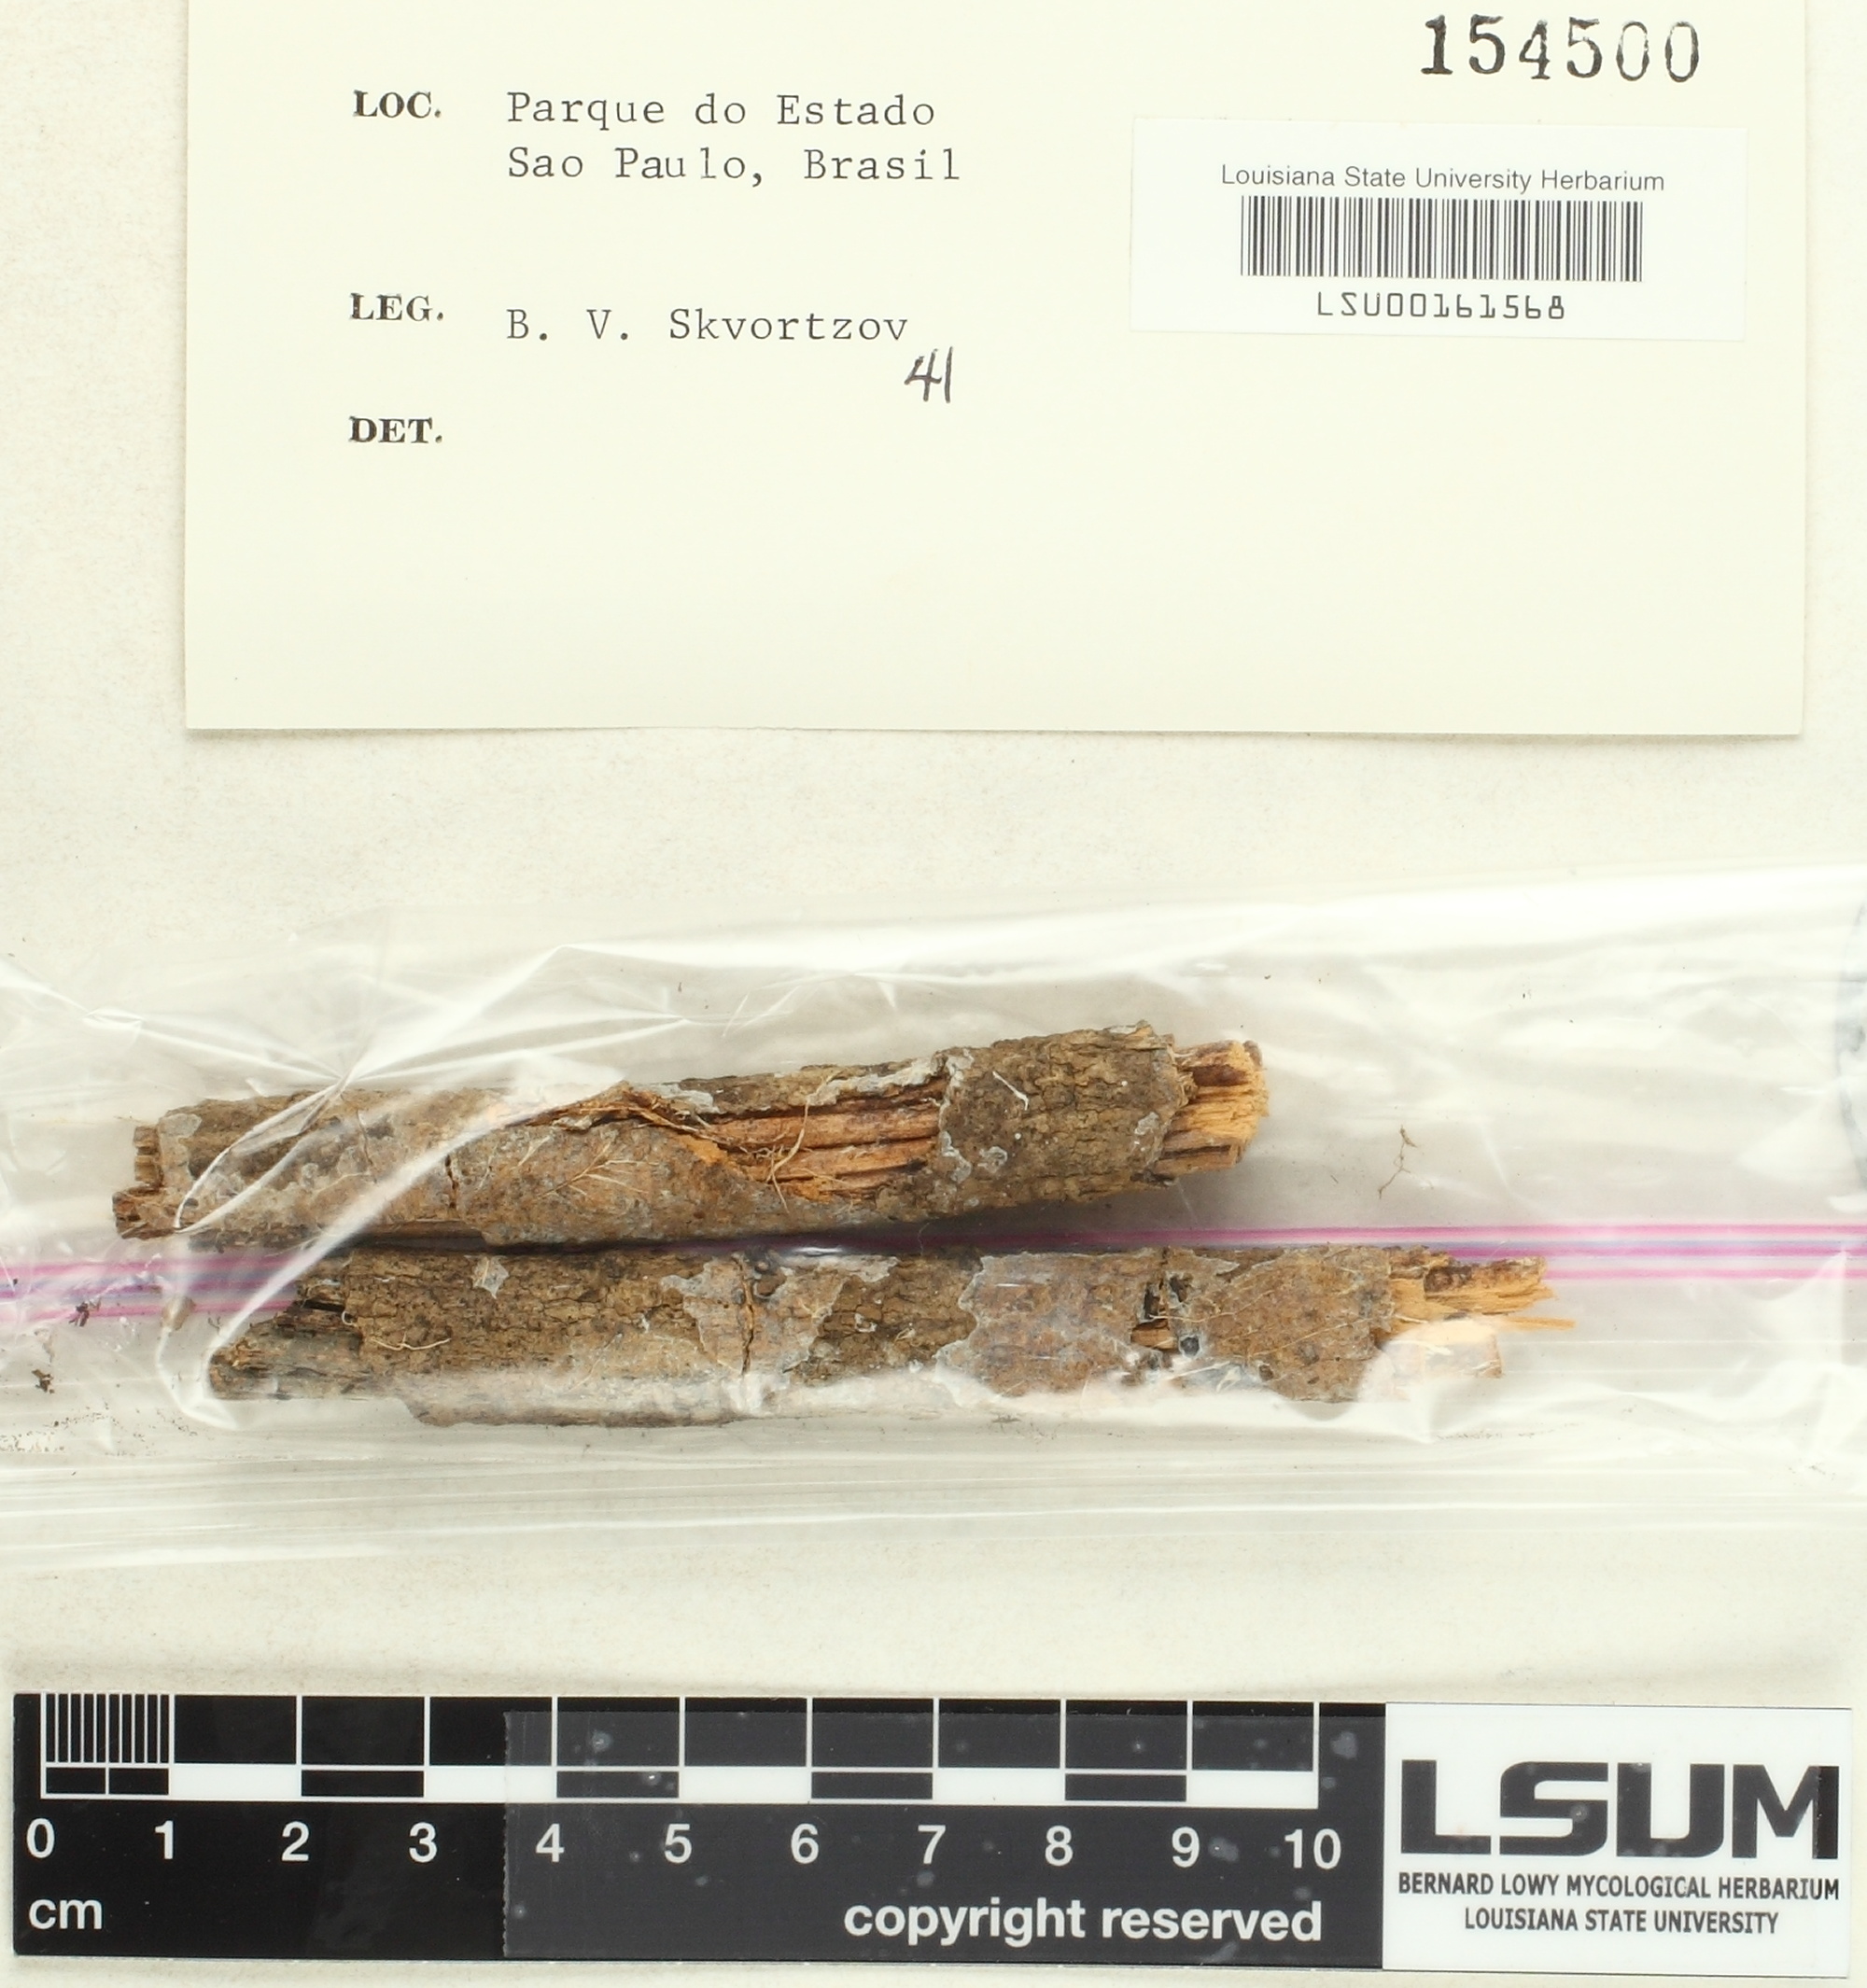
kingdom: Fungi
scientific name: Fungi
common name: Fungi
